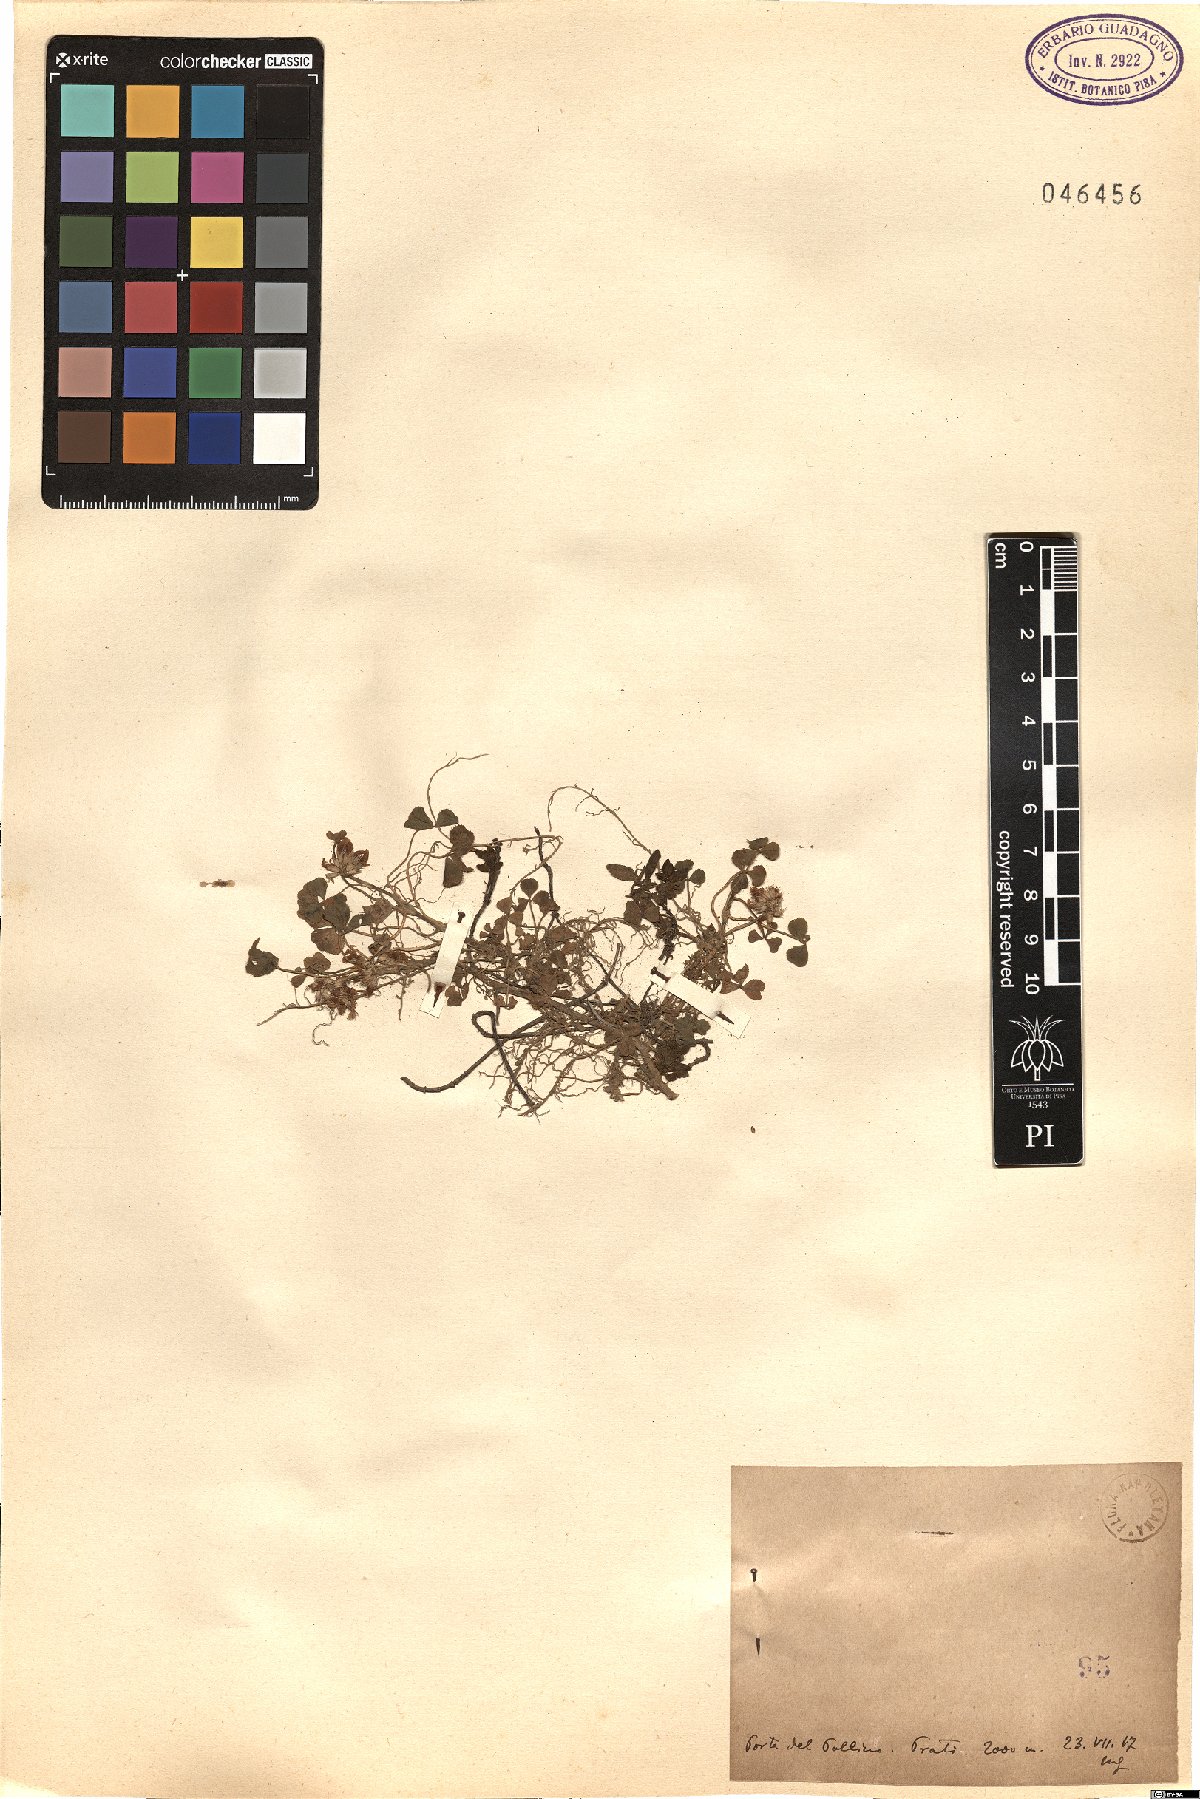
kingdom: Plantae
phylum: Tracheophyta
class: Magnoliopsida
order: Fabales
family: Fabaceae
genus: Trifolium
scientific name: Trifolium
